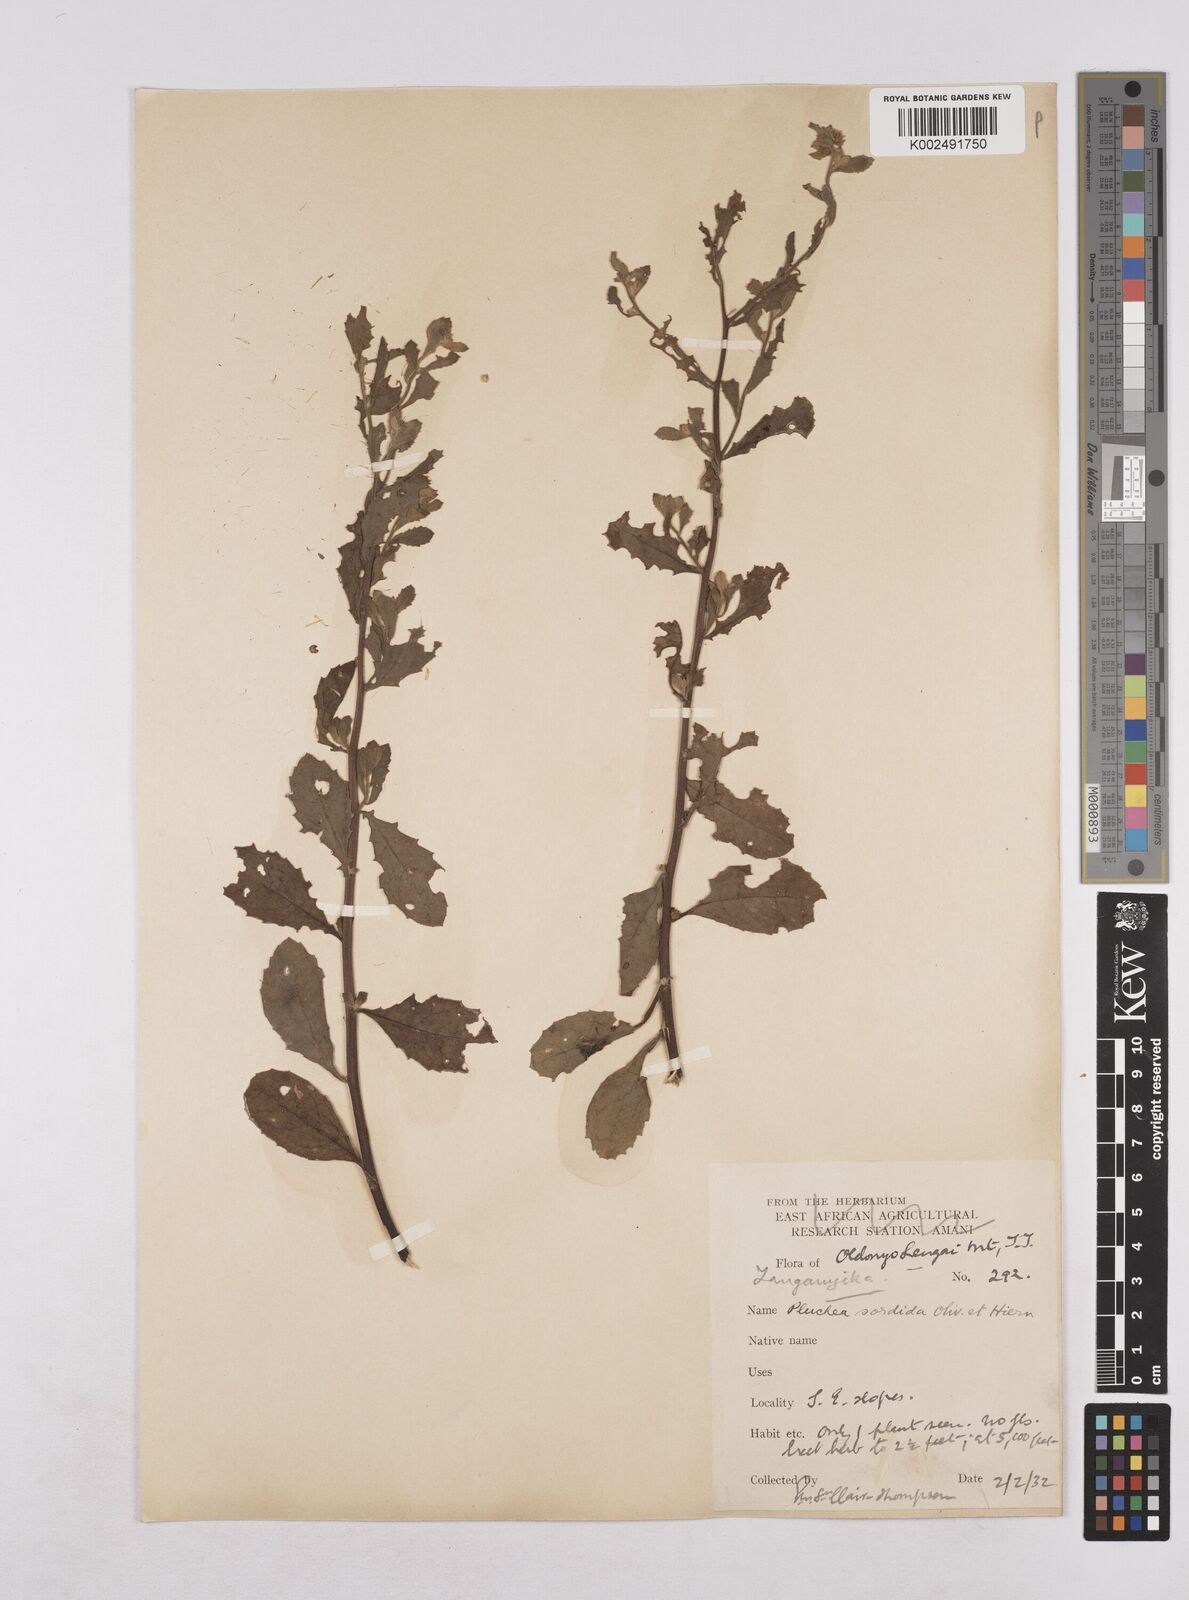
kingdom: Plantae
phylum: Tracheophyta
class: Magnoliopsida
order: Asterales
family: Asteraceae
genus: Pluchea
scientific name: Pluchea sordida
